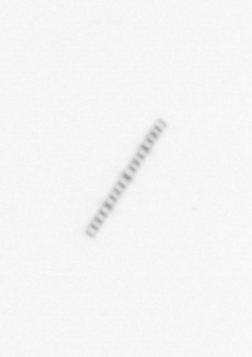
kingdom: Chromista
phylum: Ochrophyta
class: Bacillariophyceae
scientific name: Bacillariophyceae
